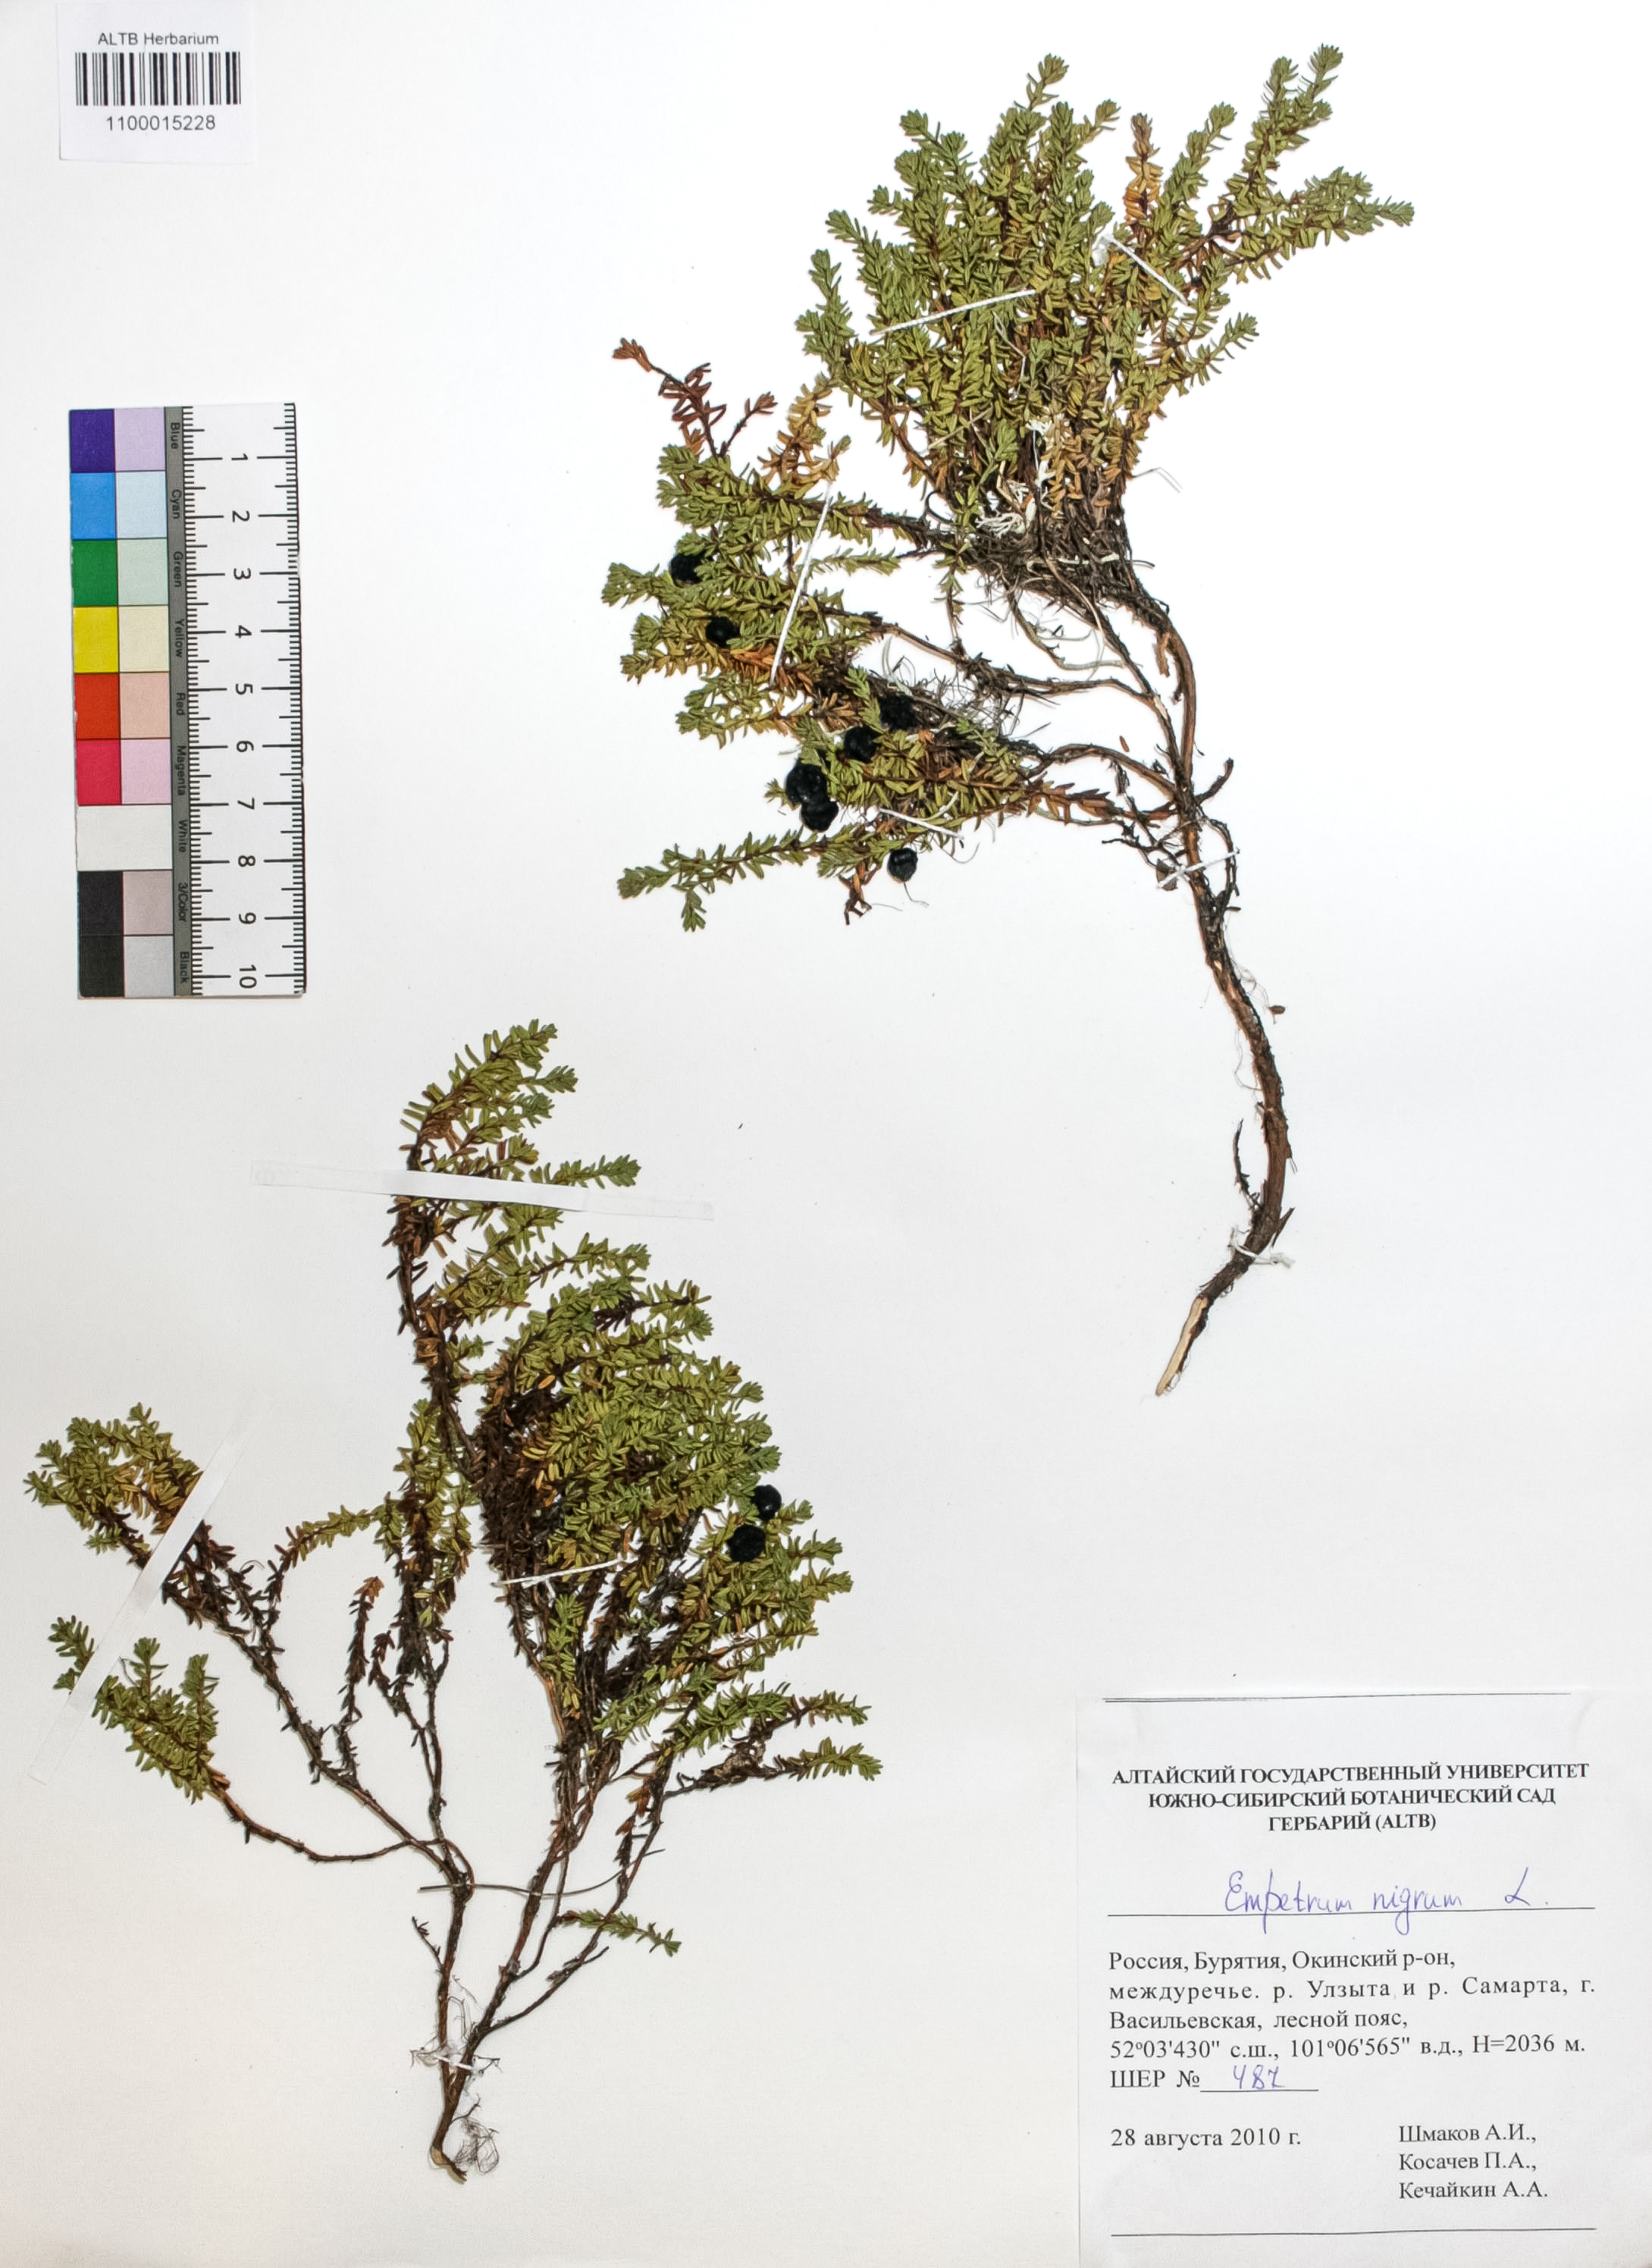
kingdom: Plantae
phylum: Tracheophyta
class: Magnoliopsida
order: Ericales
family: Ericaceae
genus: Empetrum
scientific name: Empetrum nigrum
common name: Black crowberry
